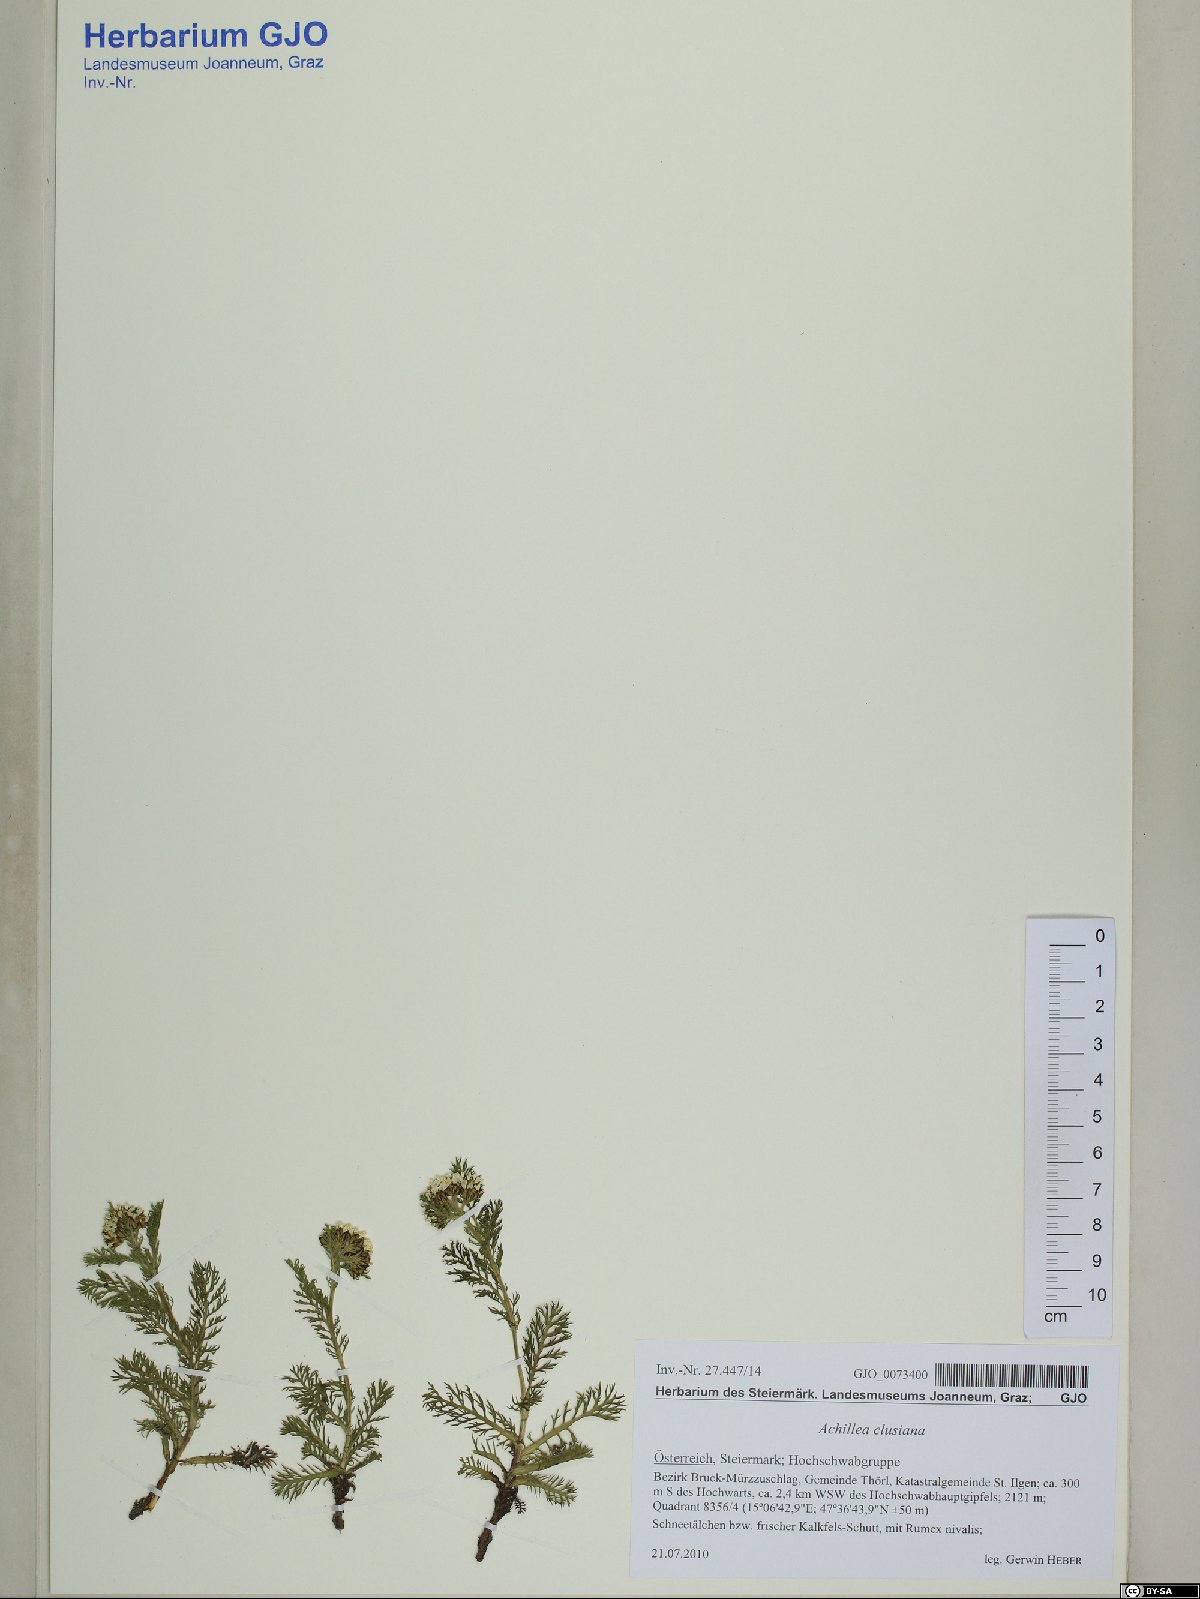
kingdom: Plantae
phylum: Tracheophyta
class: Magnoliopsida
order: Asterales
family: Asteraceae
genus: Achillea
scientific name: Achillea clusiana
